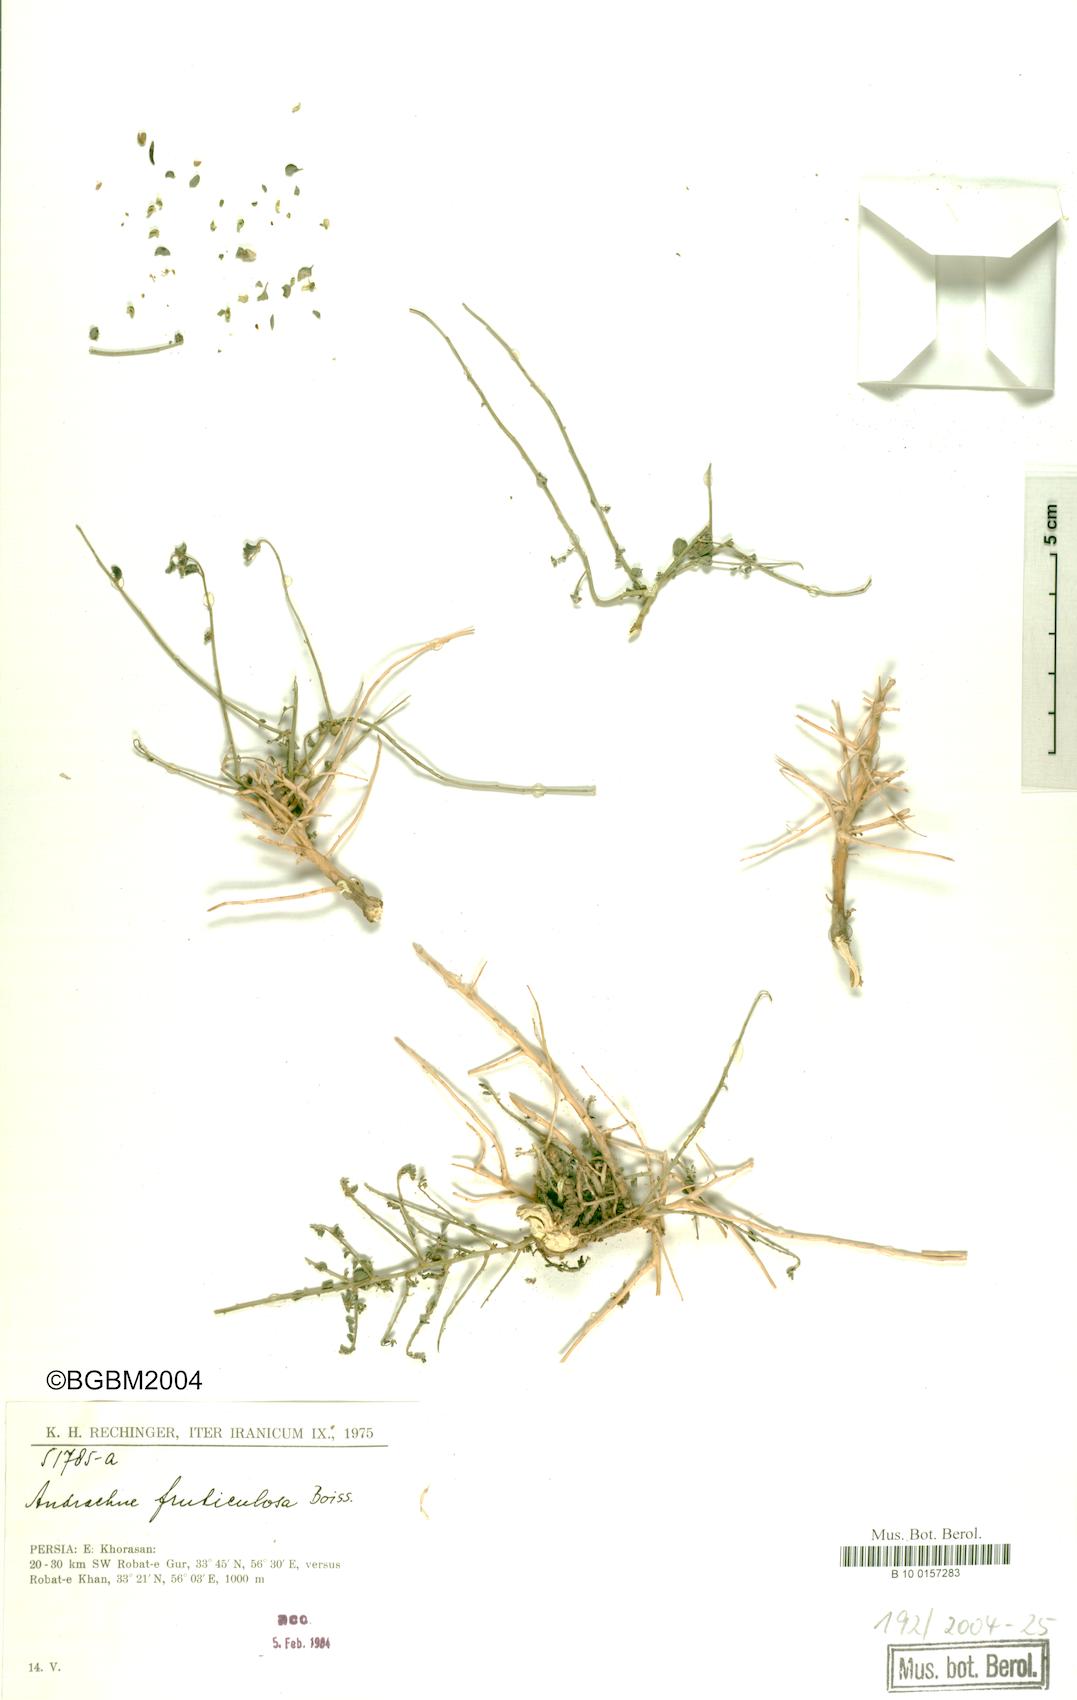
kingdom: Plantae
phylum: Tracheophyta
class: Magnoliopsida
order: Malpighiales
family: Phyllanthaceae
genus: Andrachne
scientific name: Andrachne fruticulosa
